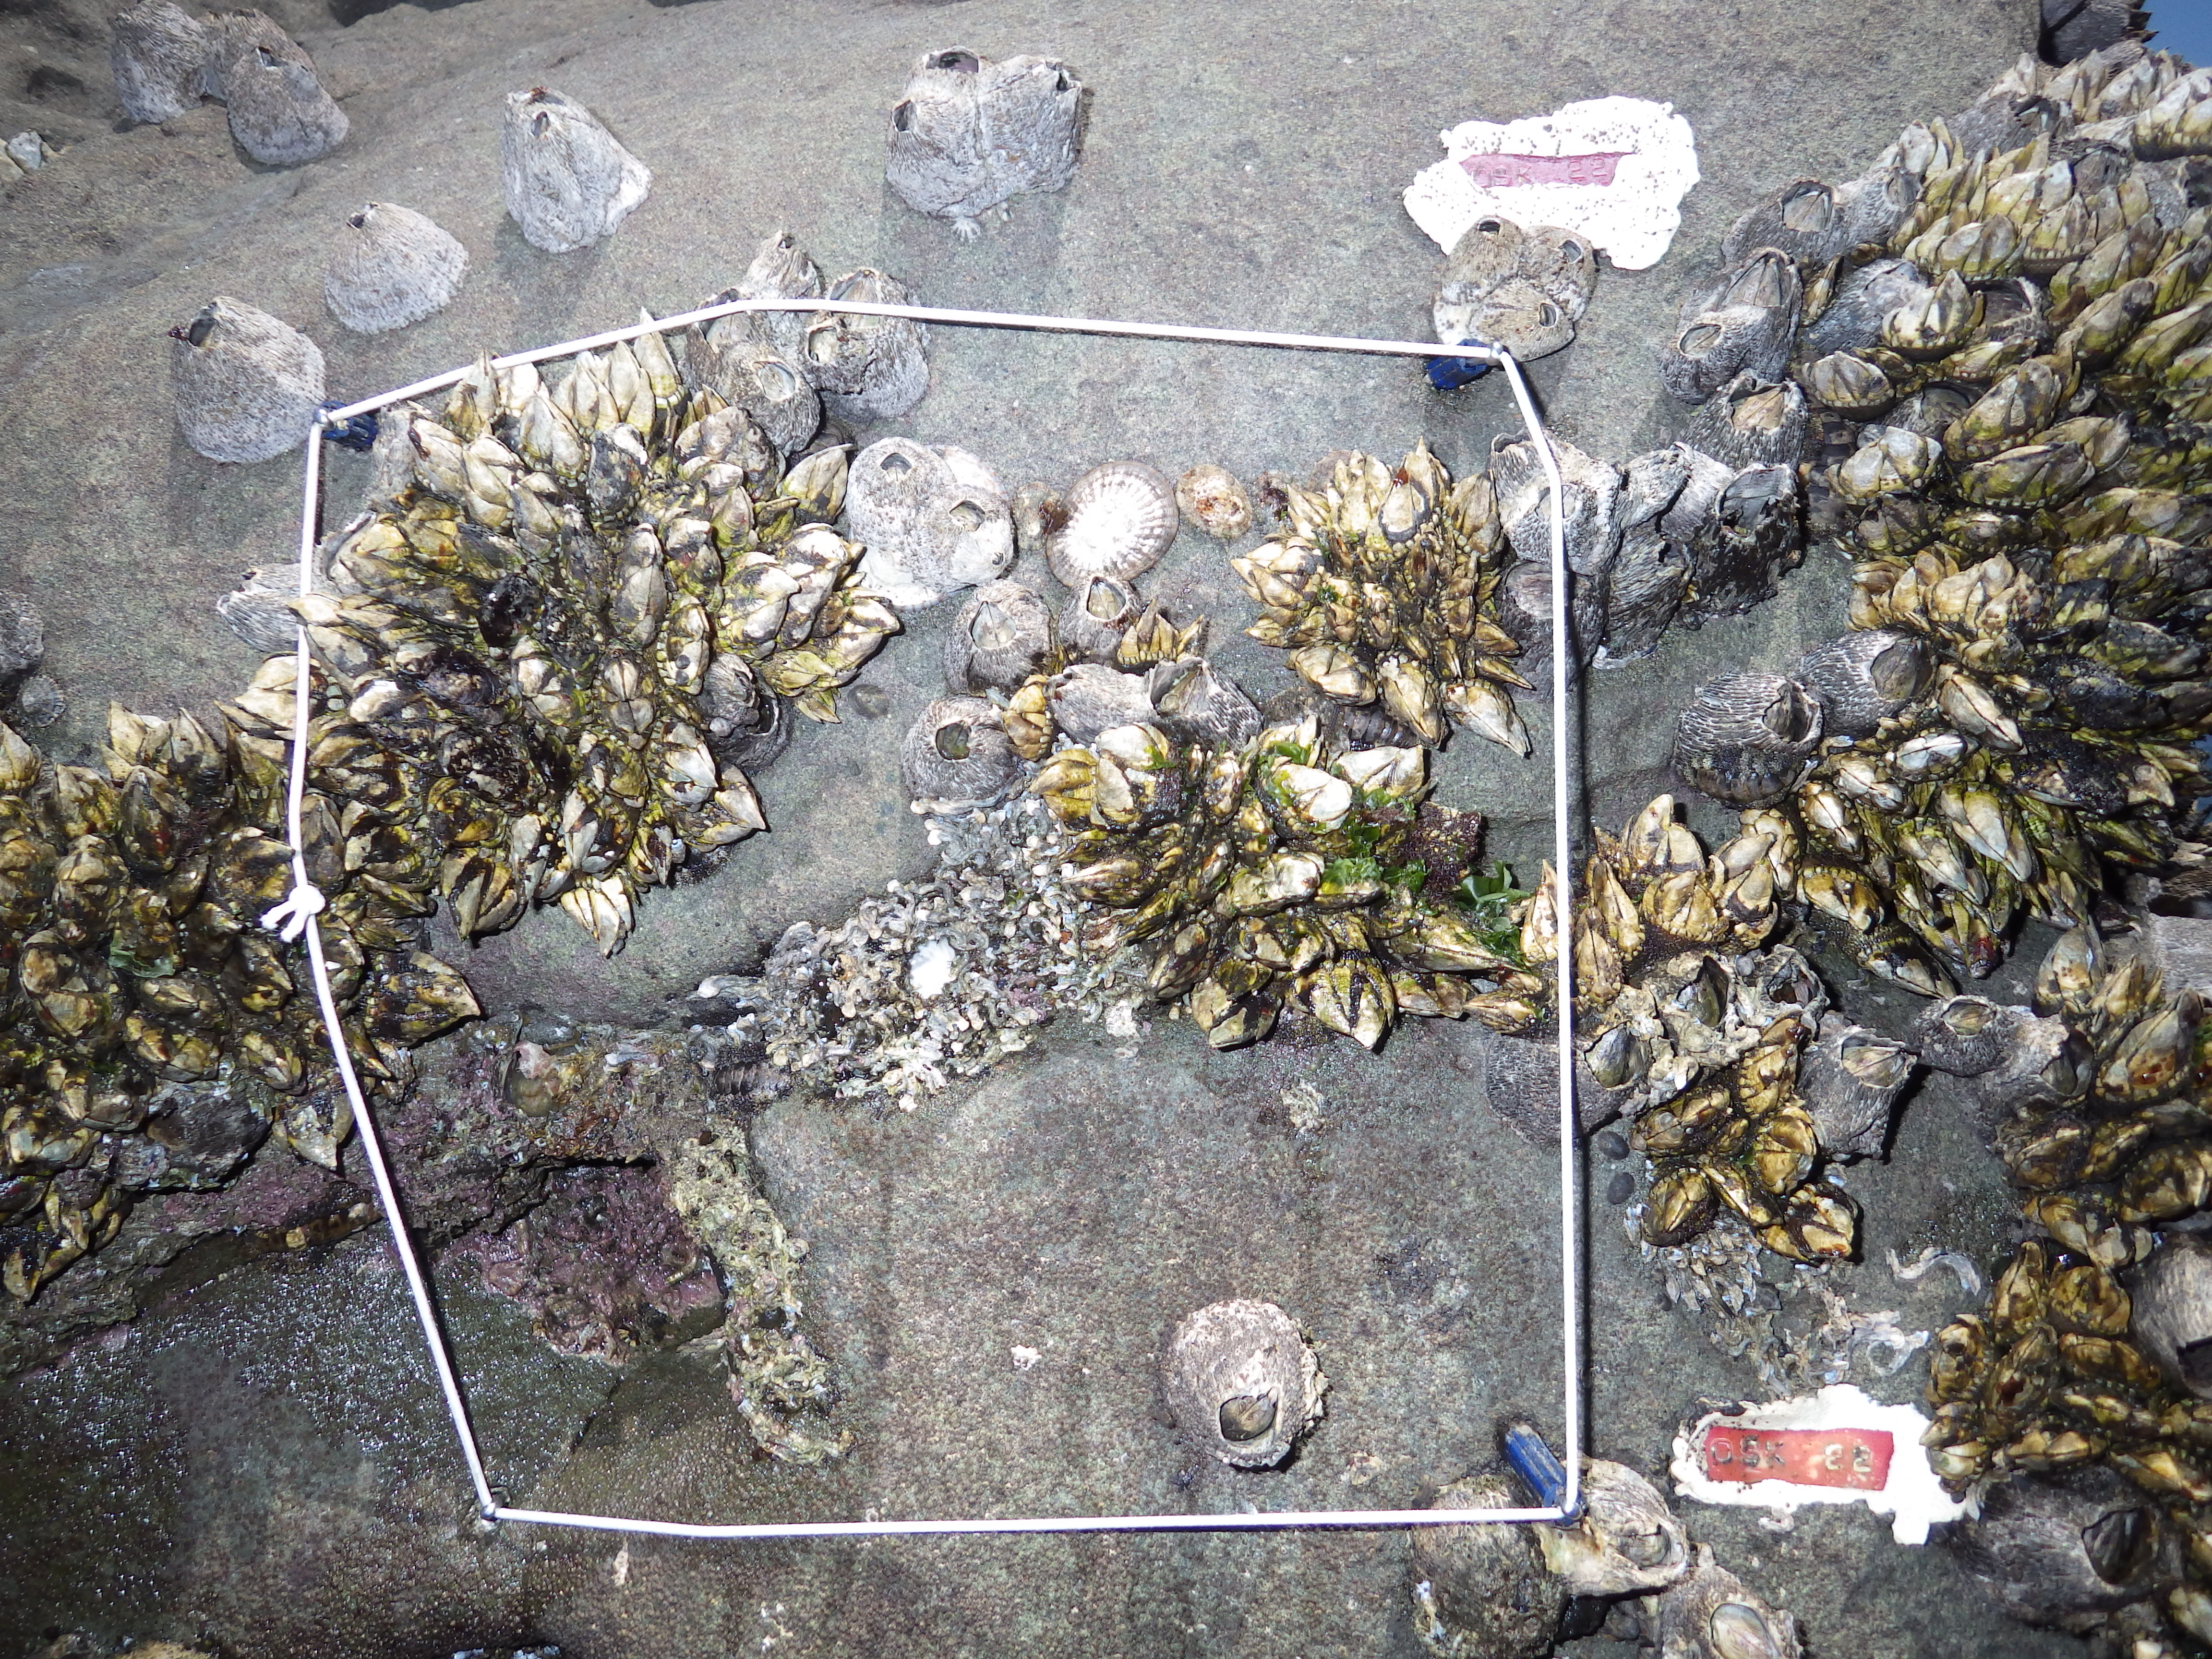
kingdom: Animalia
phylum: Arthropoda
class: Maxillopoda
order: Sessilia
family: Chthamalidae
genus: Chthamalus
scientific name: Chthamalus challengeri
